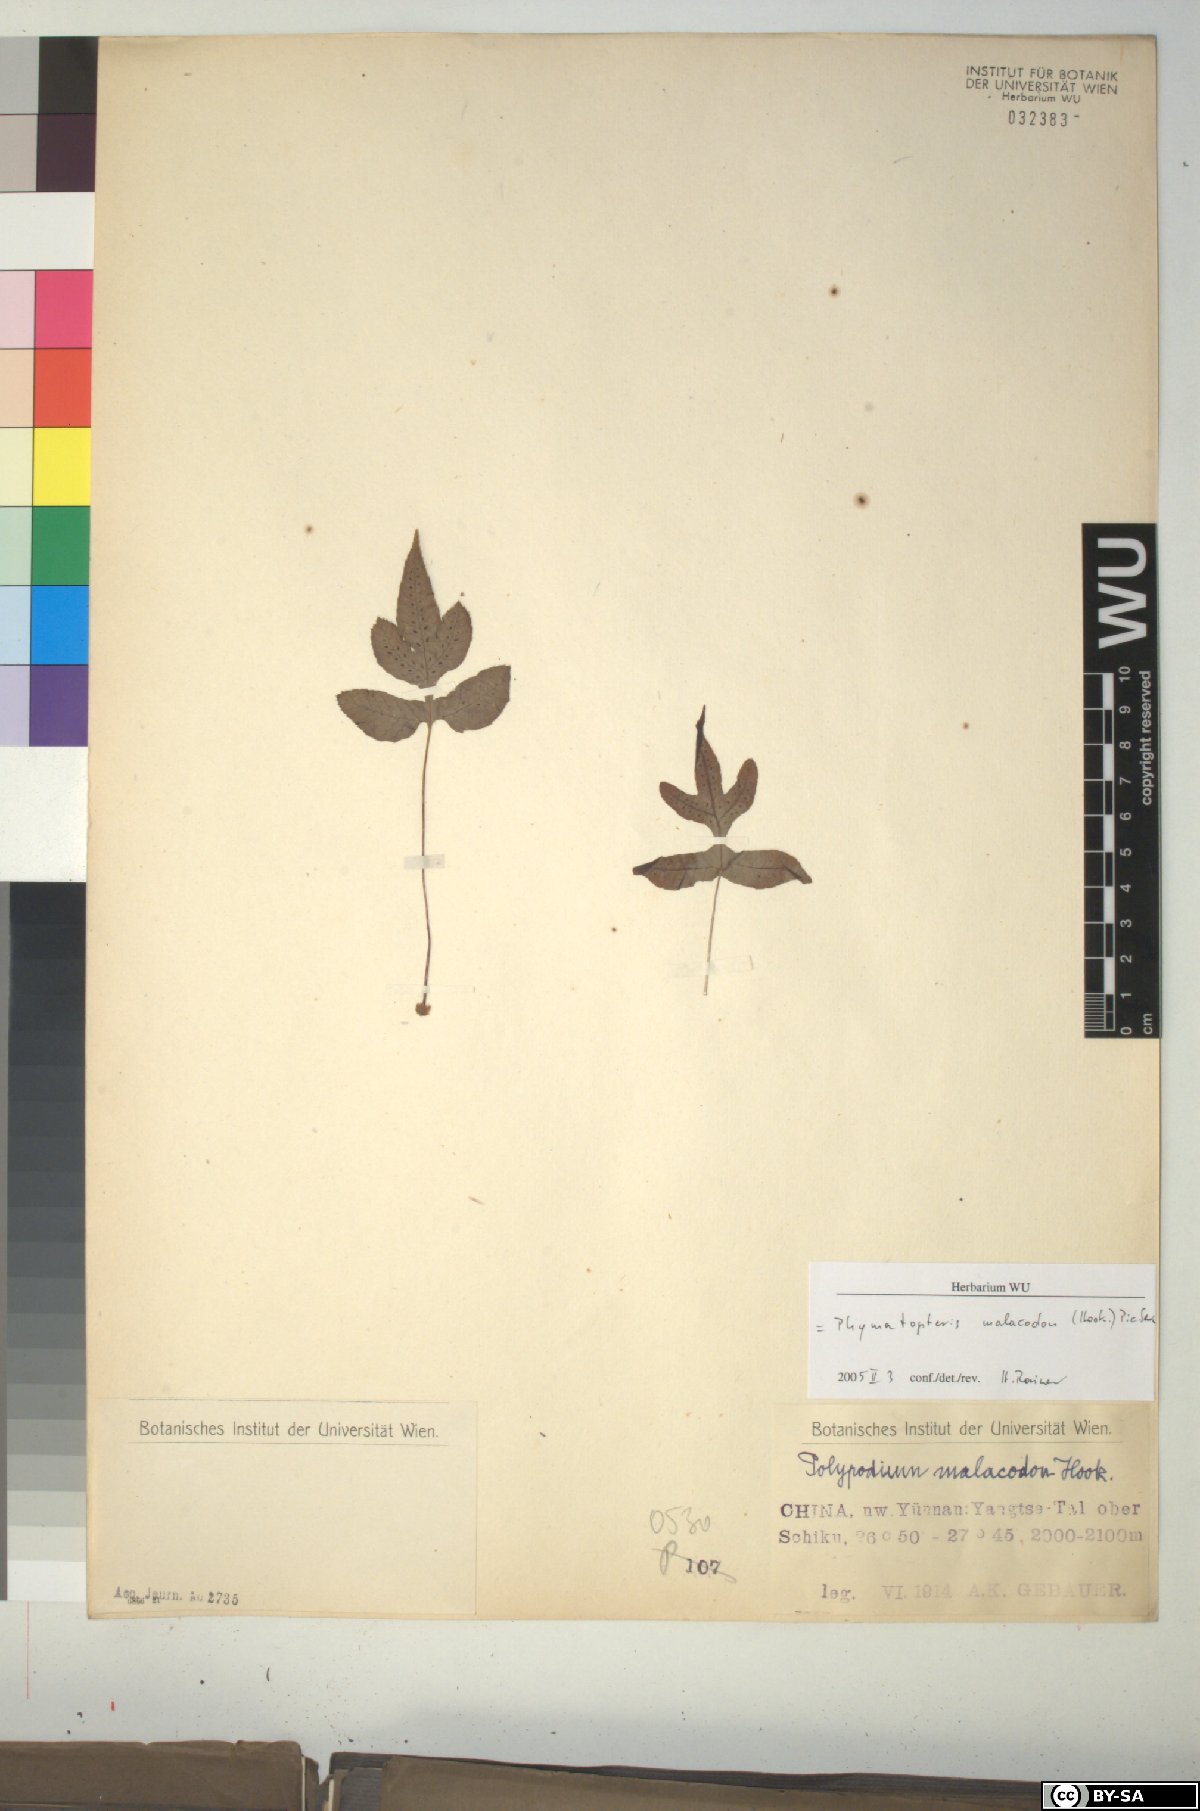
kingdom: Plantae
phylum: Tracheophyta
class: Polypodiopsida
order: Polypodiales
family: Polypodiaceae
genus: Selliguea
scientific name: Selliguea malacodon
